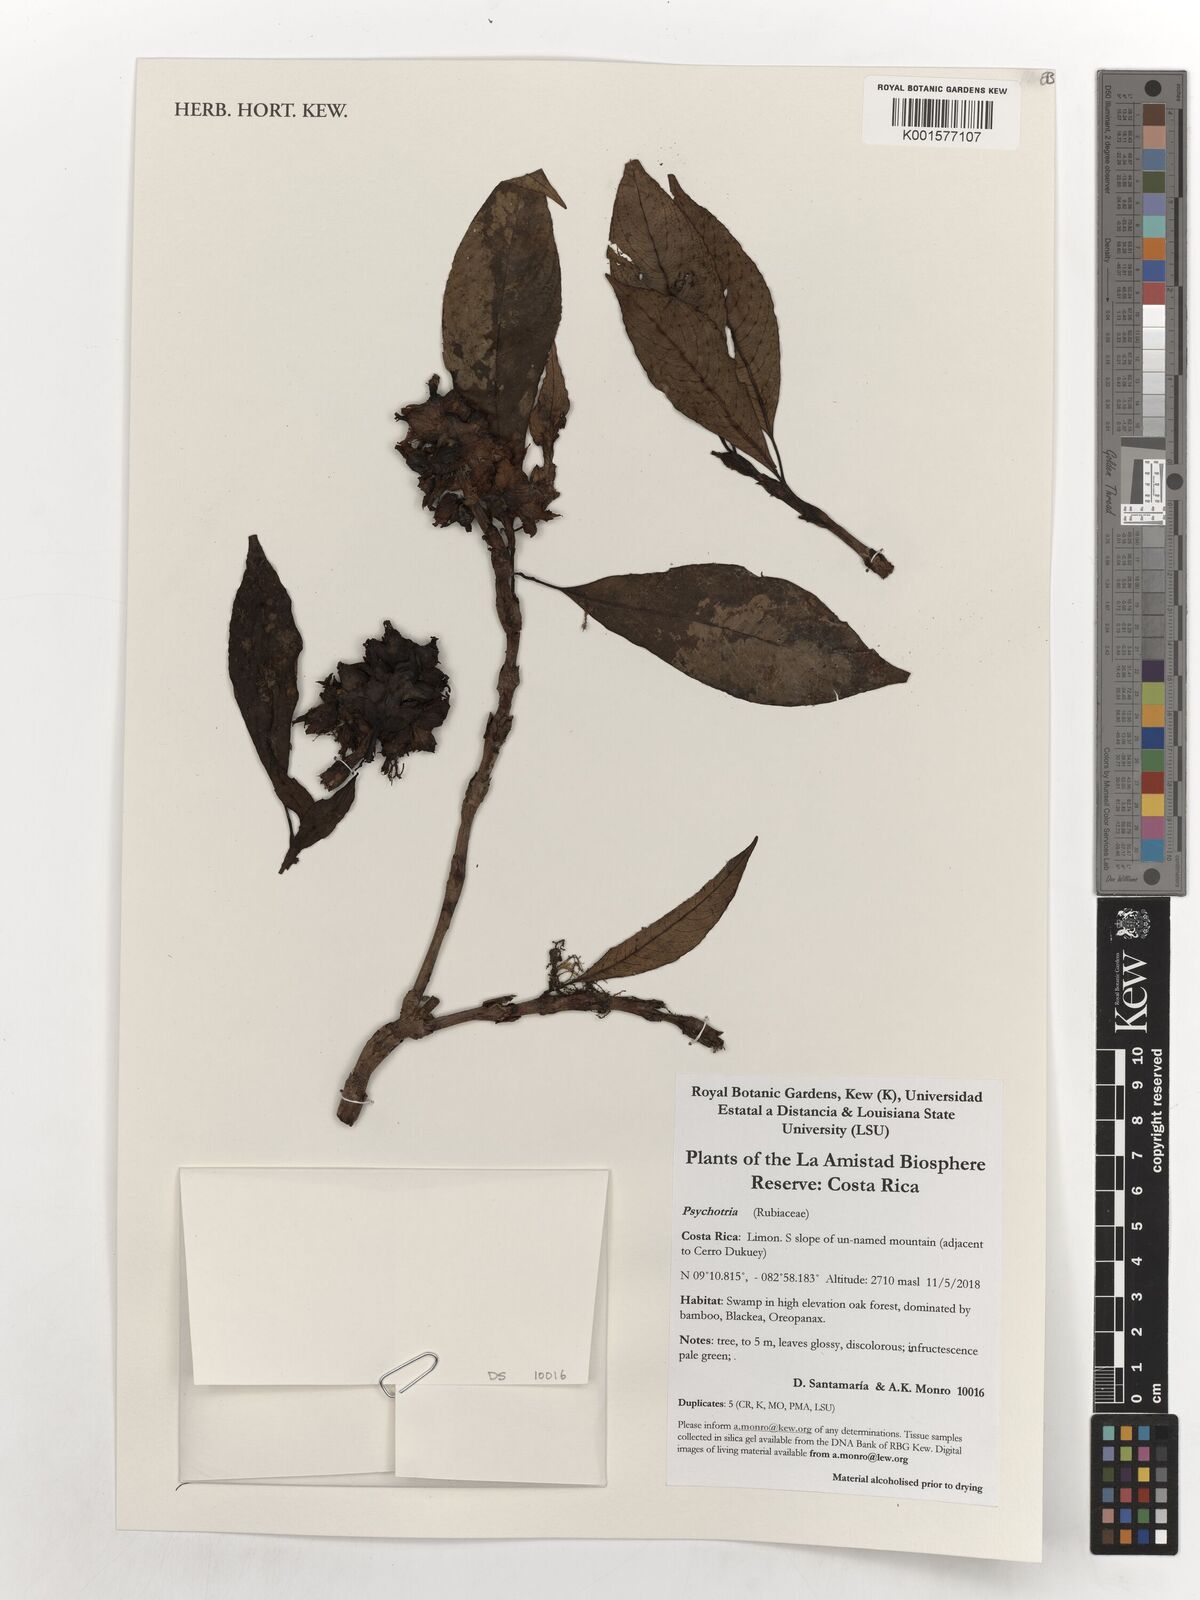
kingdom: Plantae
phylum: Tracheophyta
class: Magnoliopsida
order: Gentianales
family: Rubiaceae
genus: Psychotria
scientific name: Psychotria
